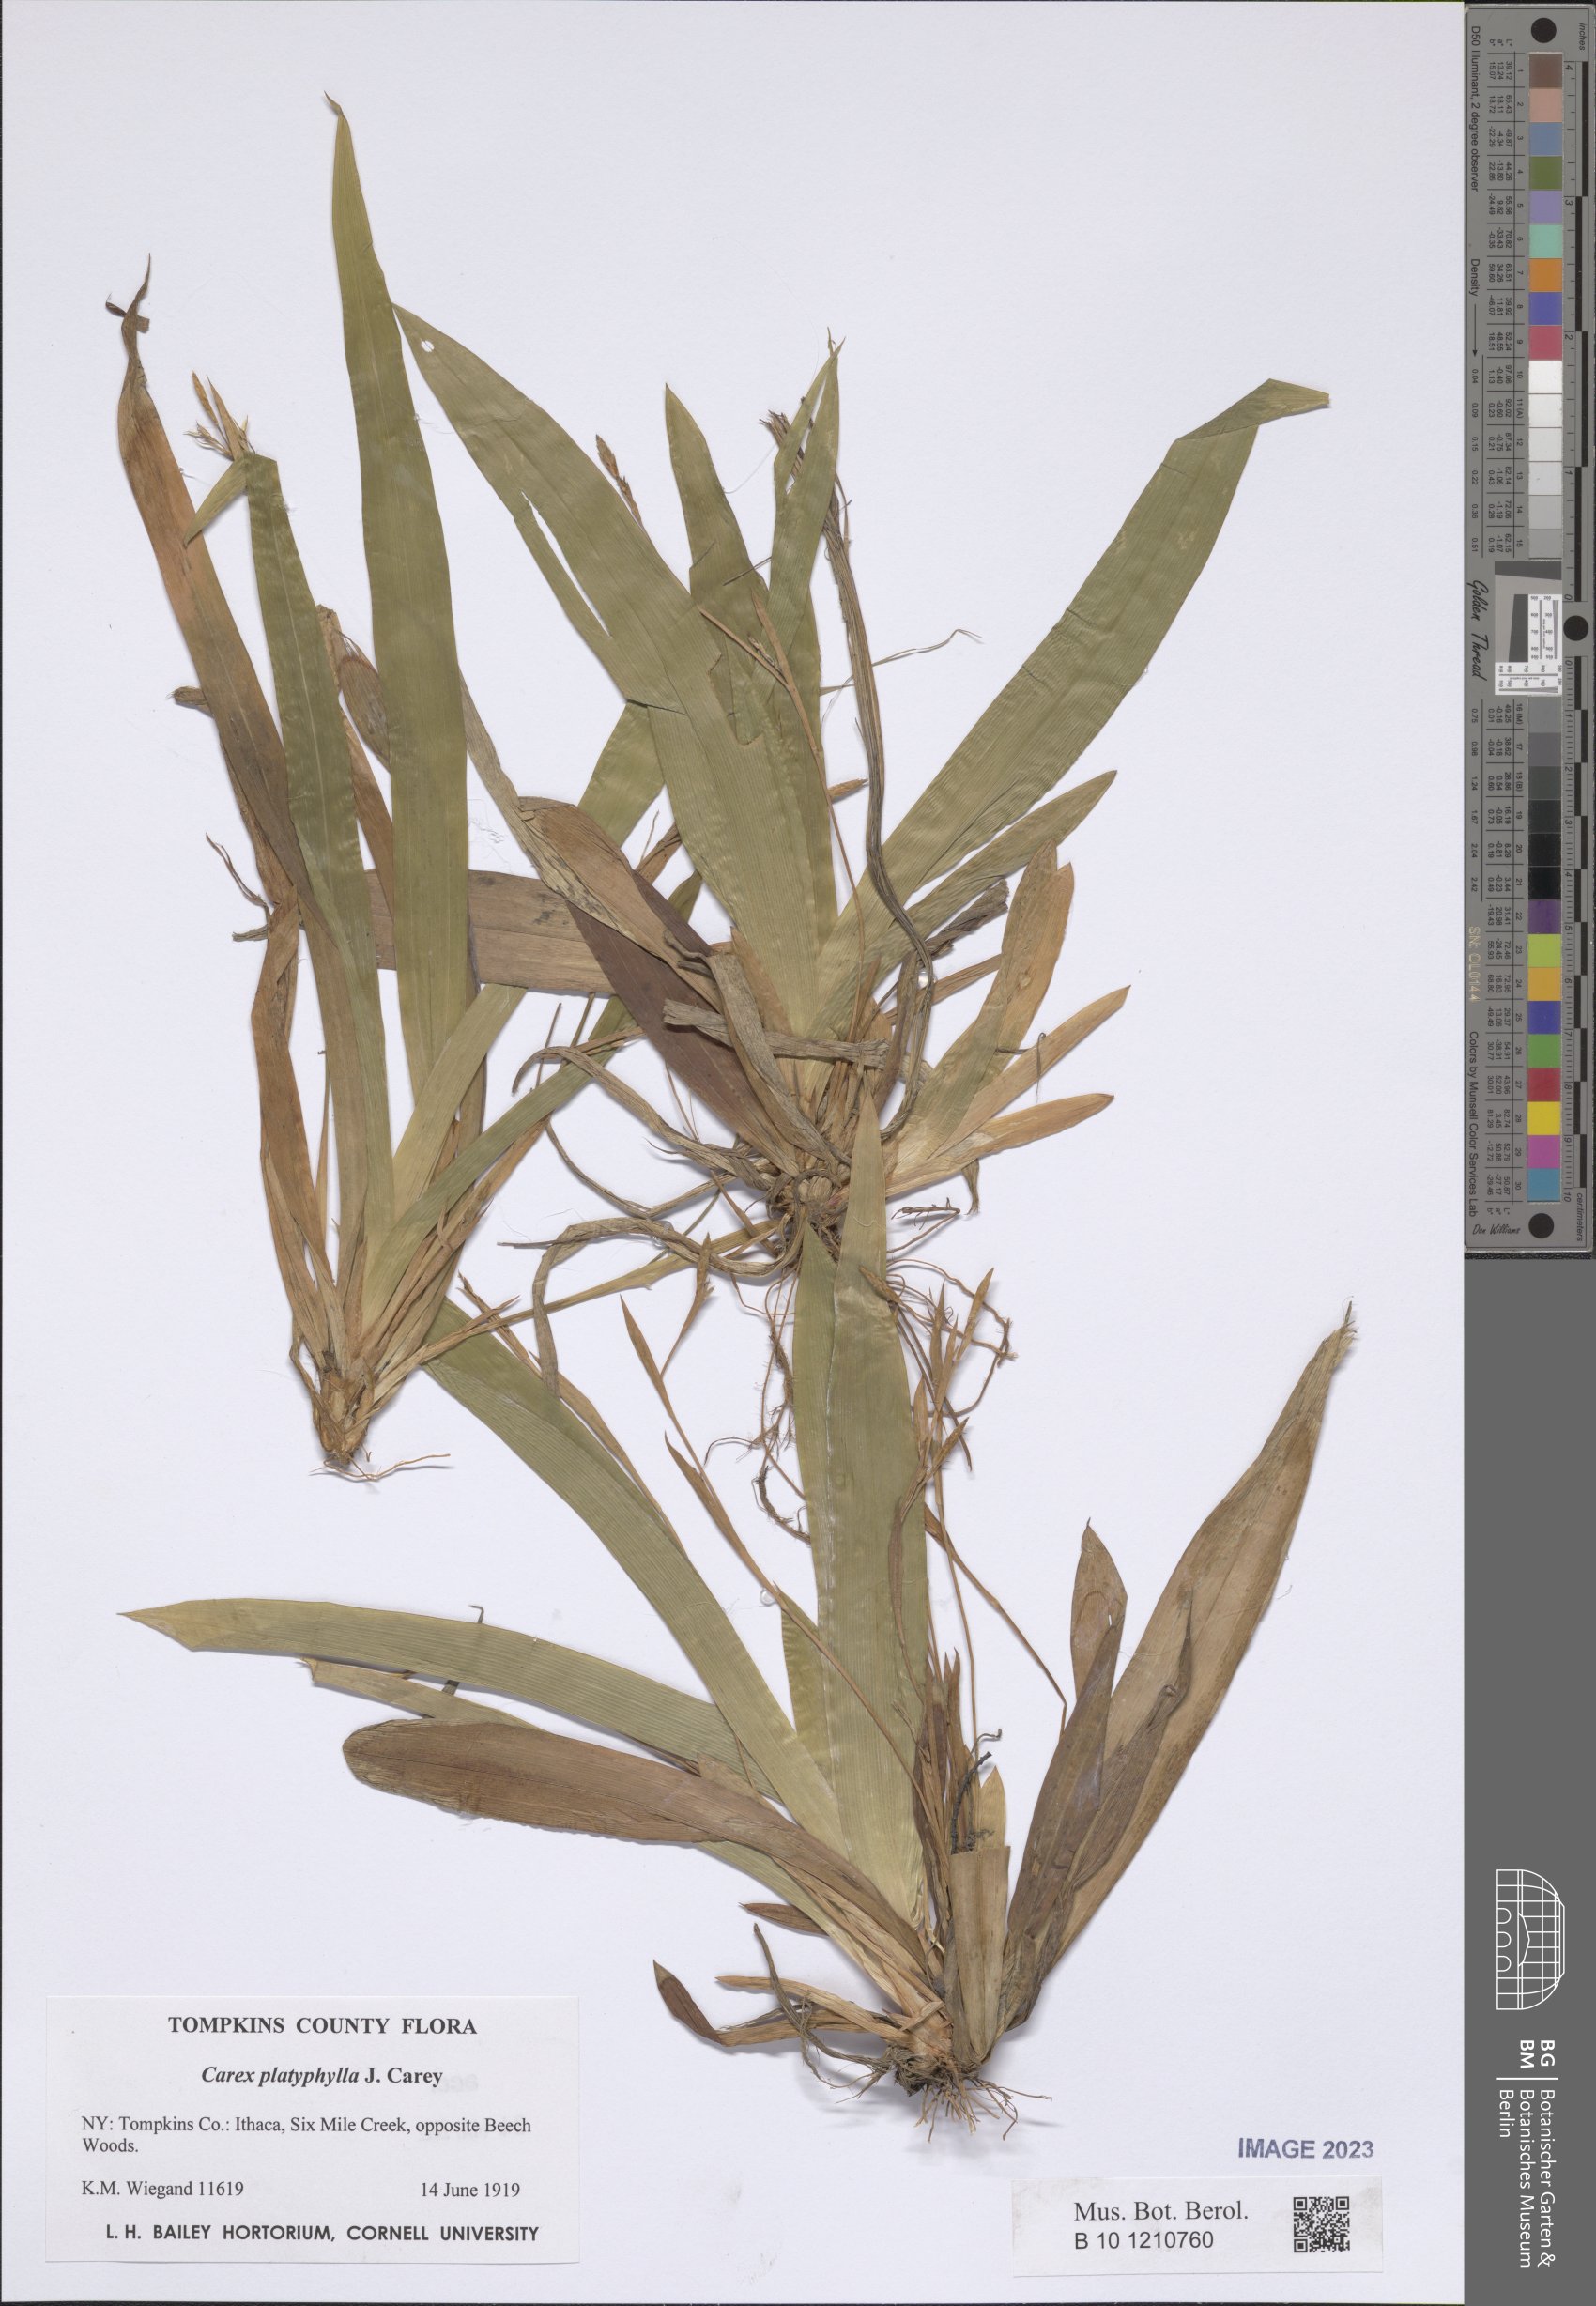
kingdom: Plantae
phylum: Tracheophyta
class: Liliopsida
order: Poales
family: Cyperaceae
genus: Carex
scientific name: Carex platyphylla
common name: Broad-leaved sedge
